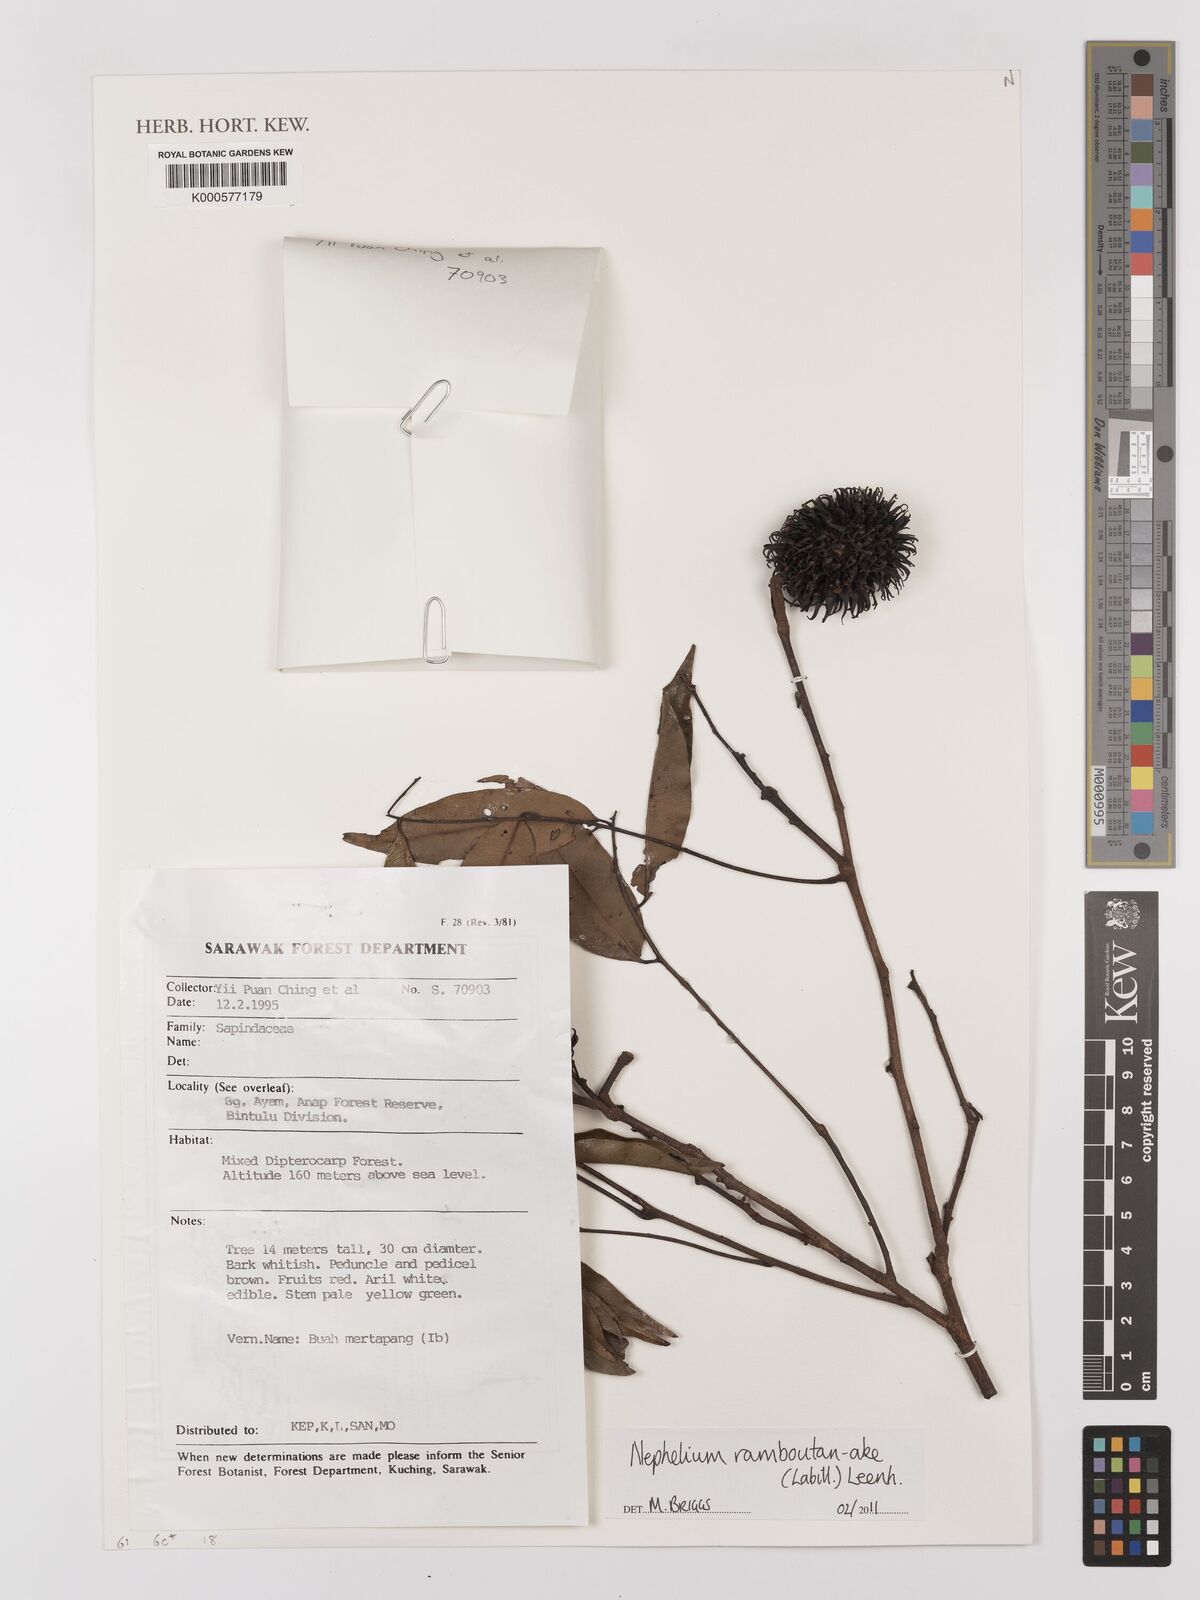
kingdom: Plantae
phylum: Tracheophyta
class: Magnoliopsida
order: Sapindales
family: Sapindaceae
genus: Nephelium
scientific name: Nephelium ramboutan-ake
